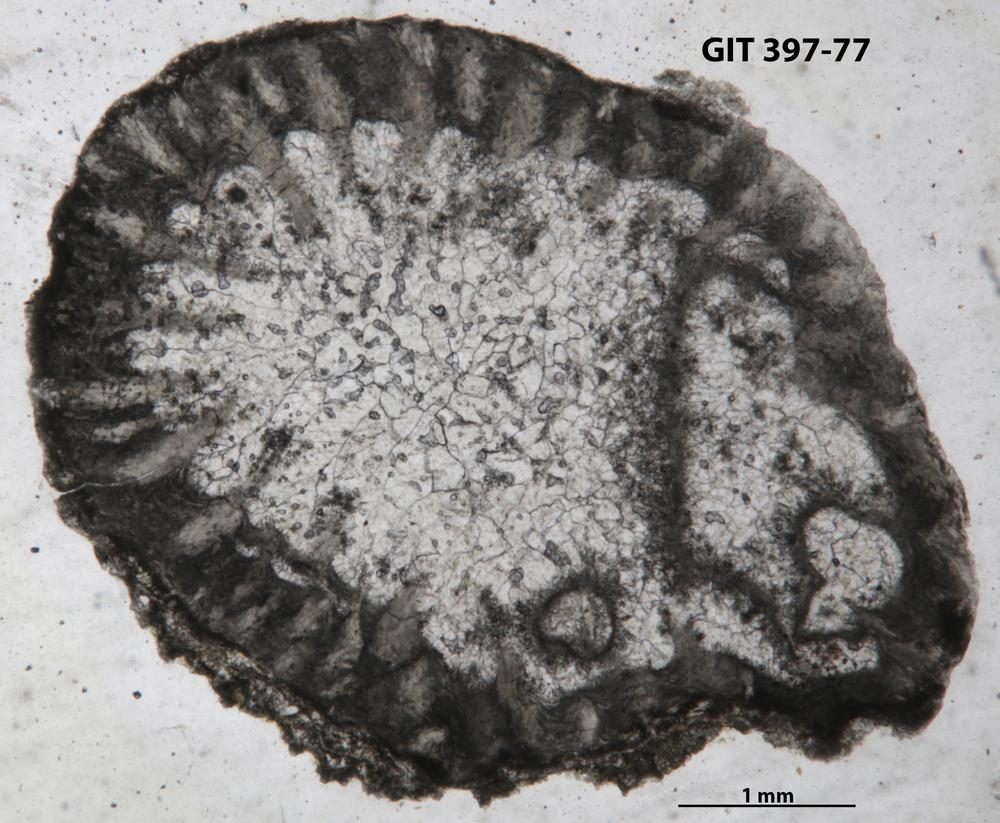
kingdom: Animalia
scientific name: Animalia
